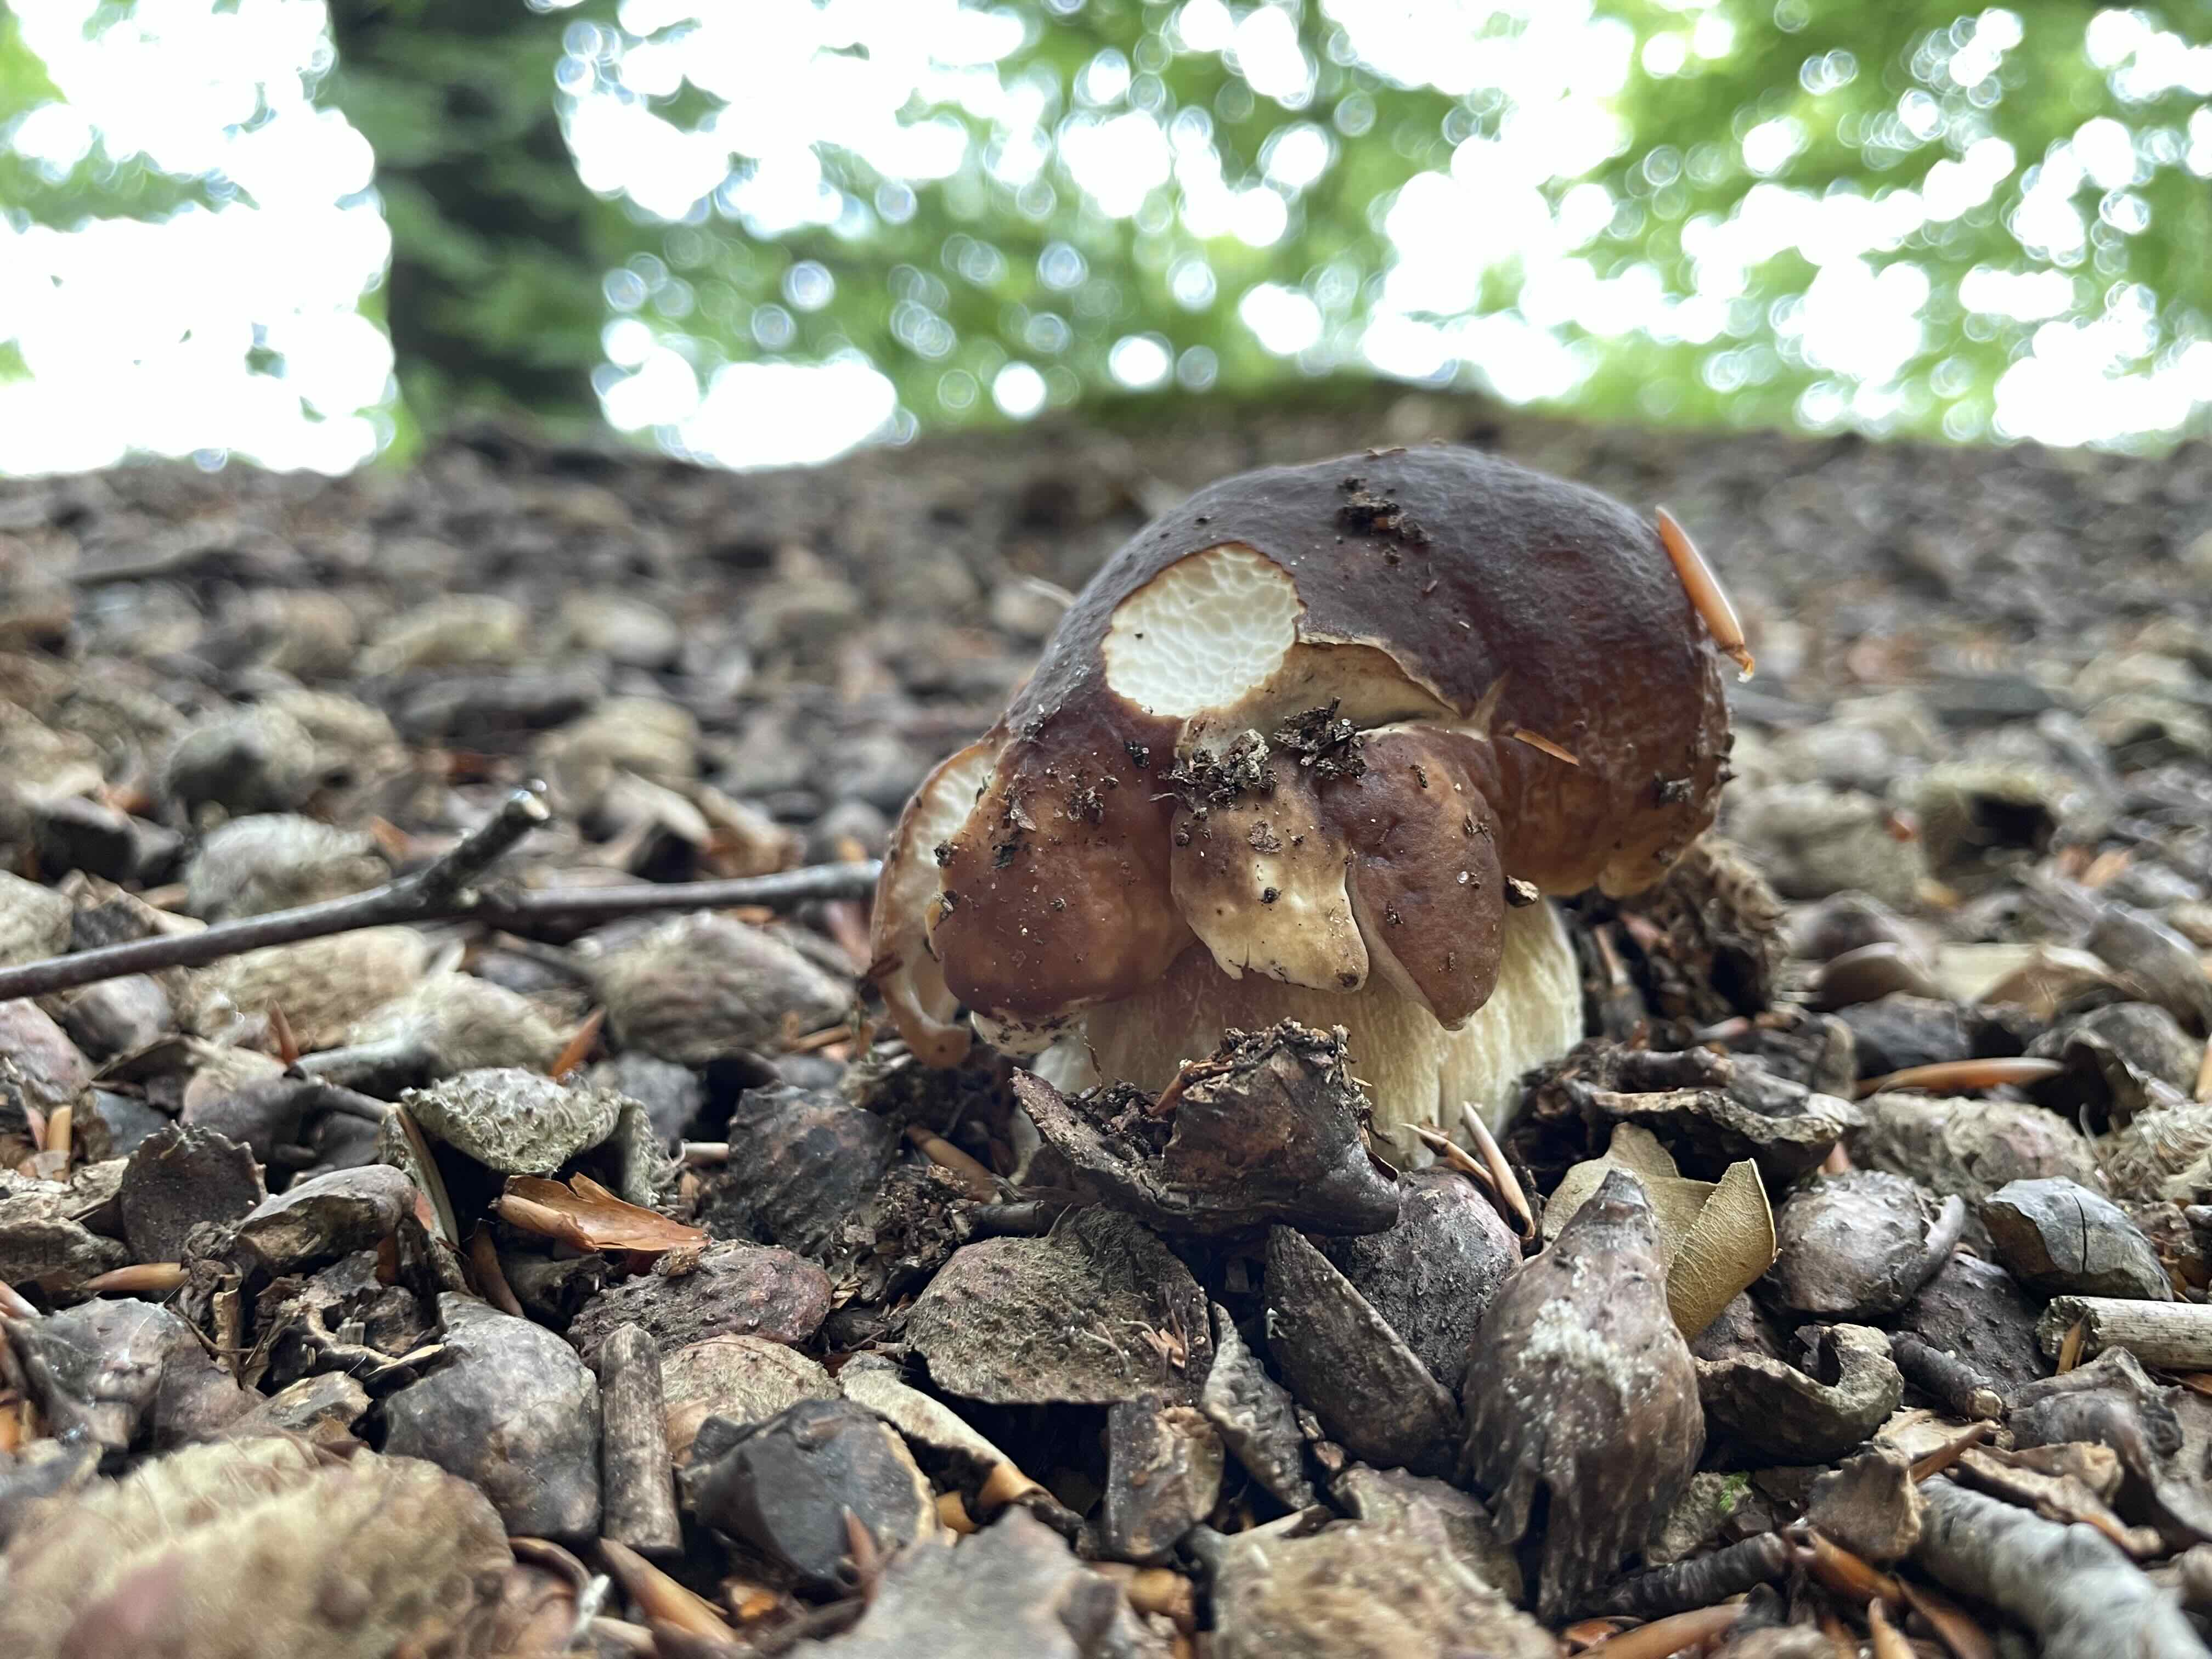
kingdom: Fungi
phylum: Basidiomycota
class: Agaricomycetes
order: Boletales
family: Boletaceae
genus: Boletus
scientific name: Boletus edulis
